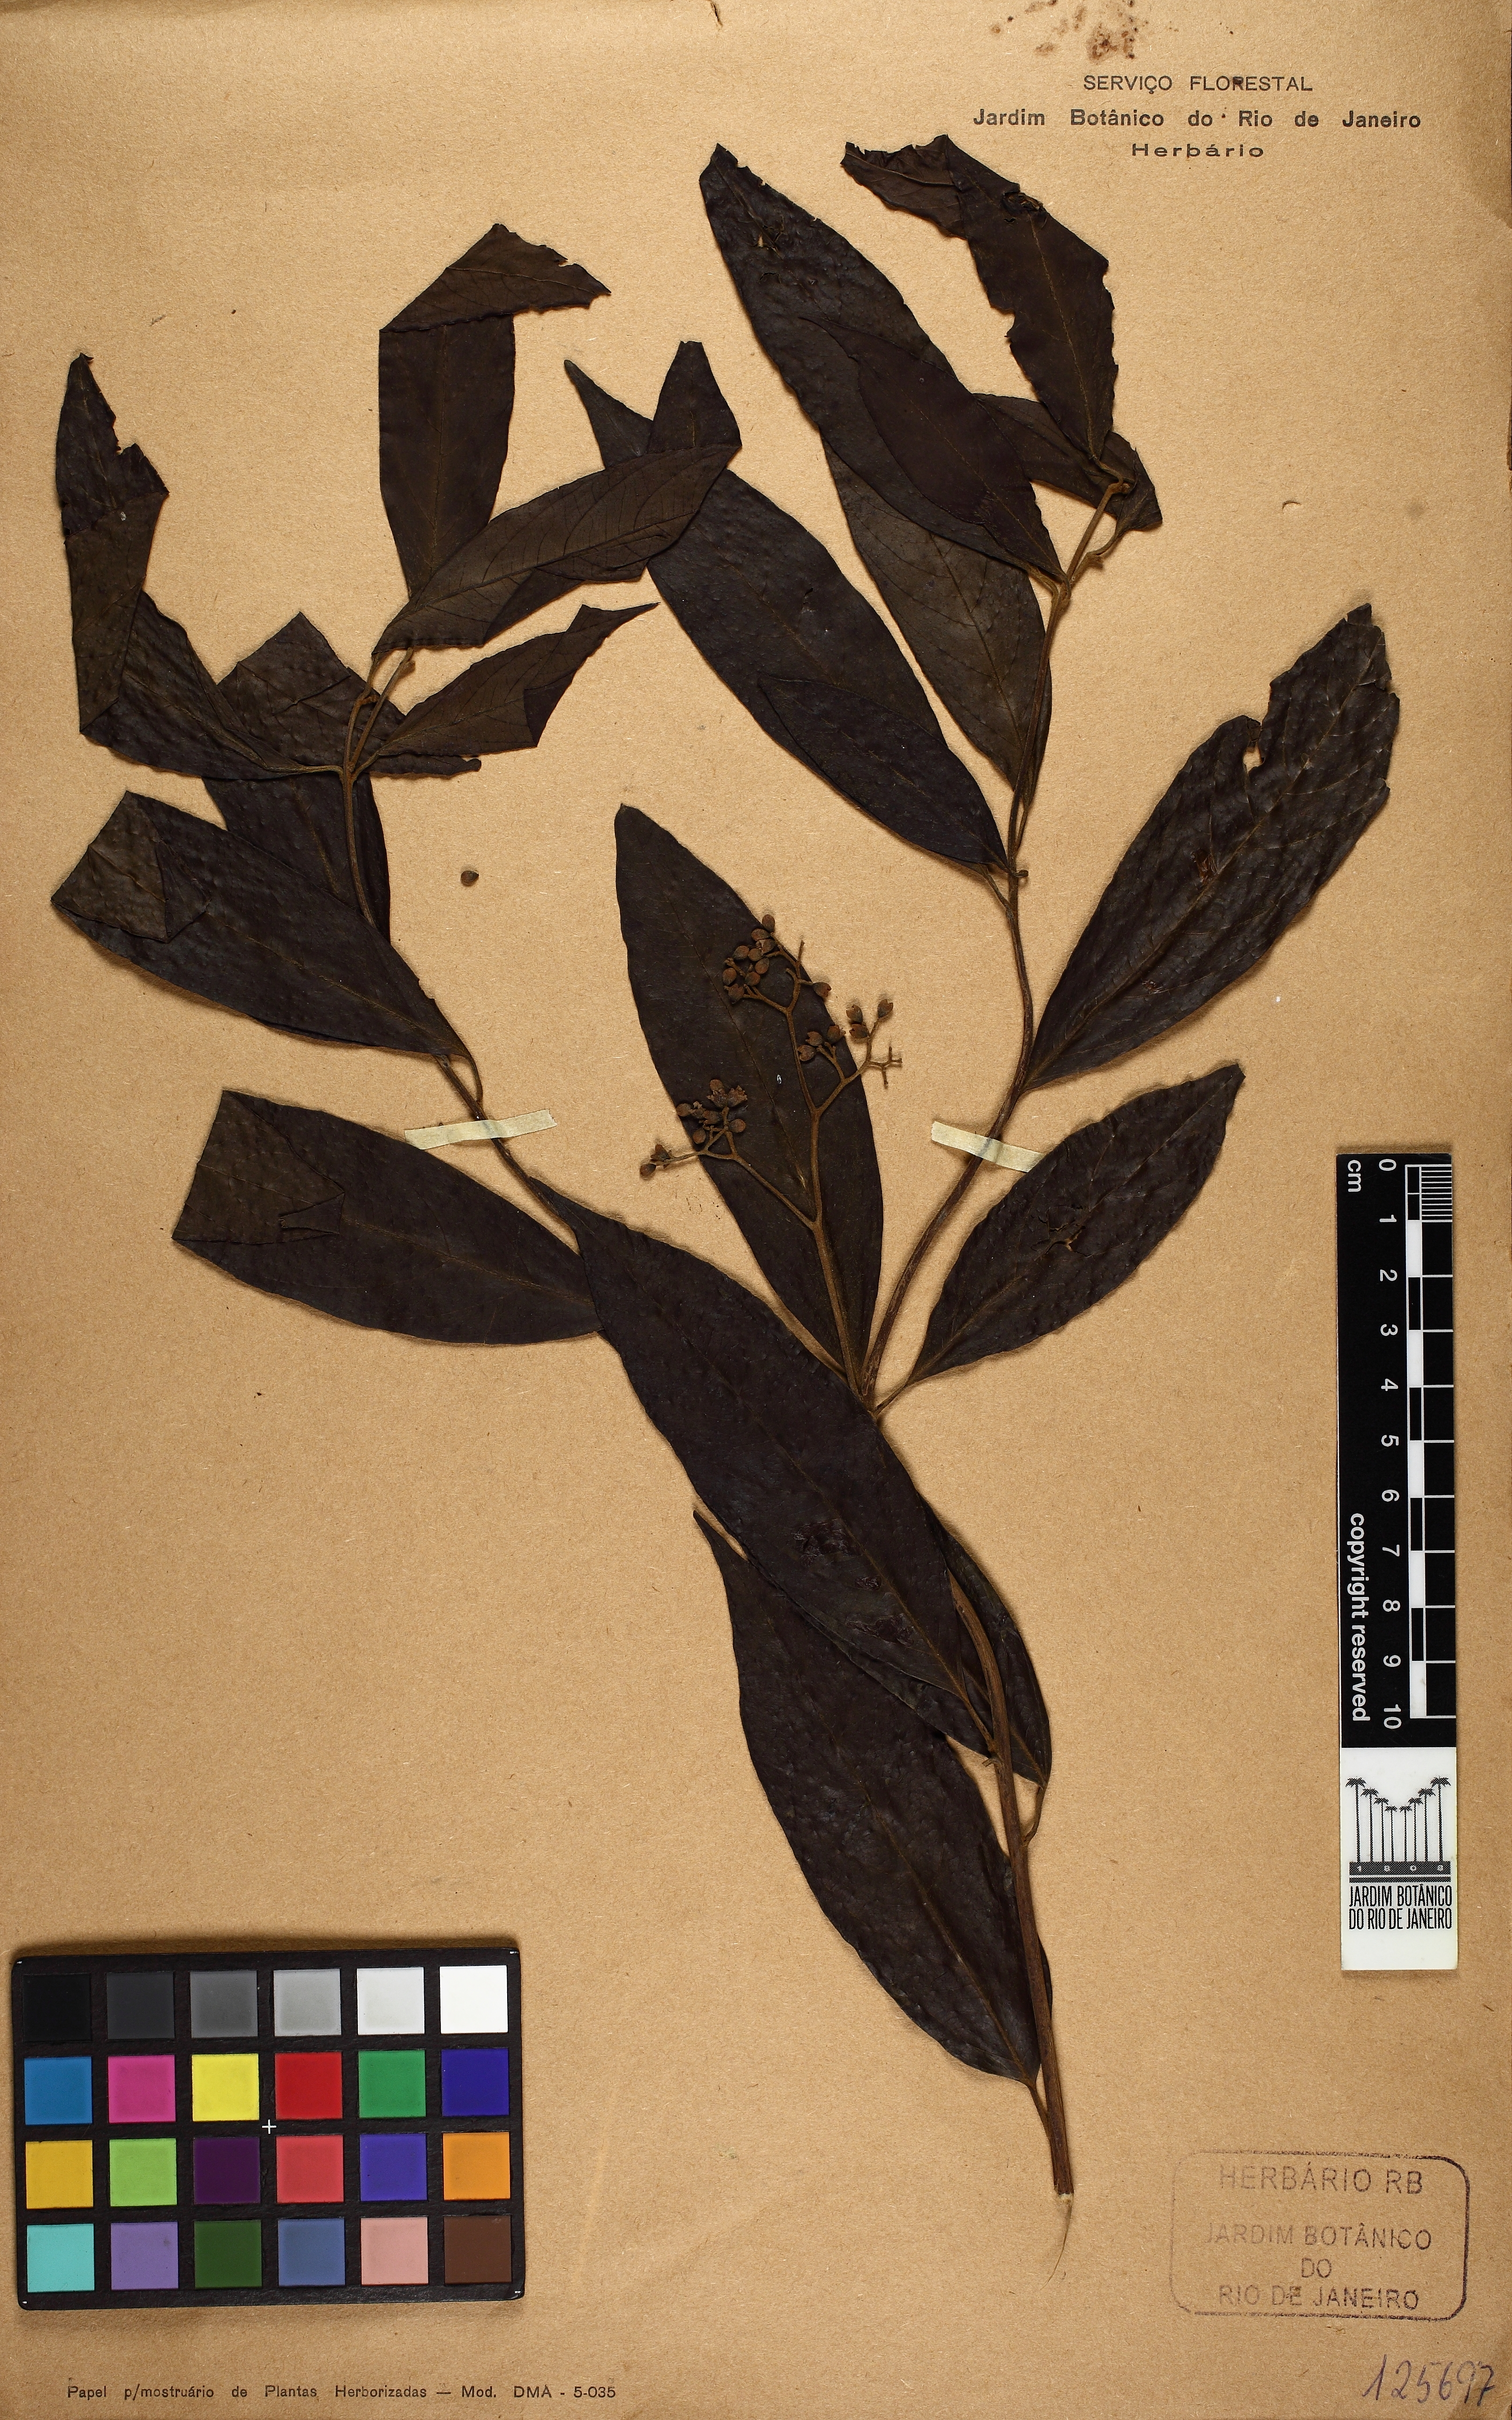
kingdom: Plantae
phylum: Tracheophyta
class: Magnoliopsida
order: Boraginales
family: Cordiaceae
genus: Cordia
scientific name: Cordia
